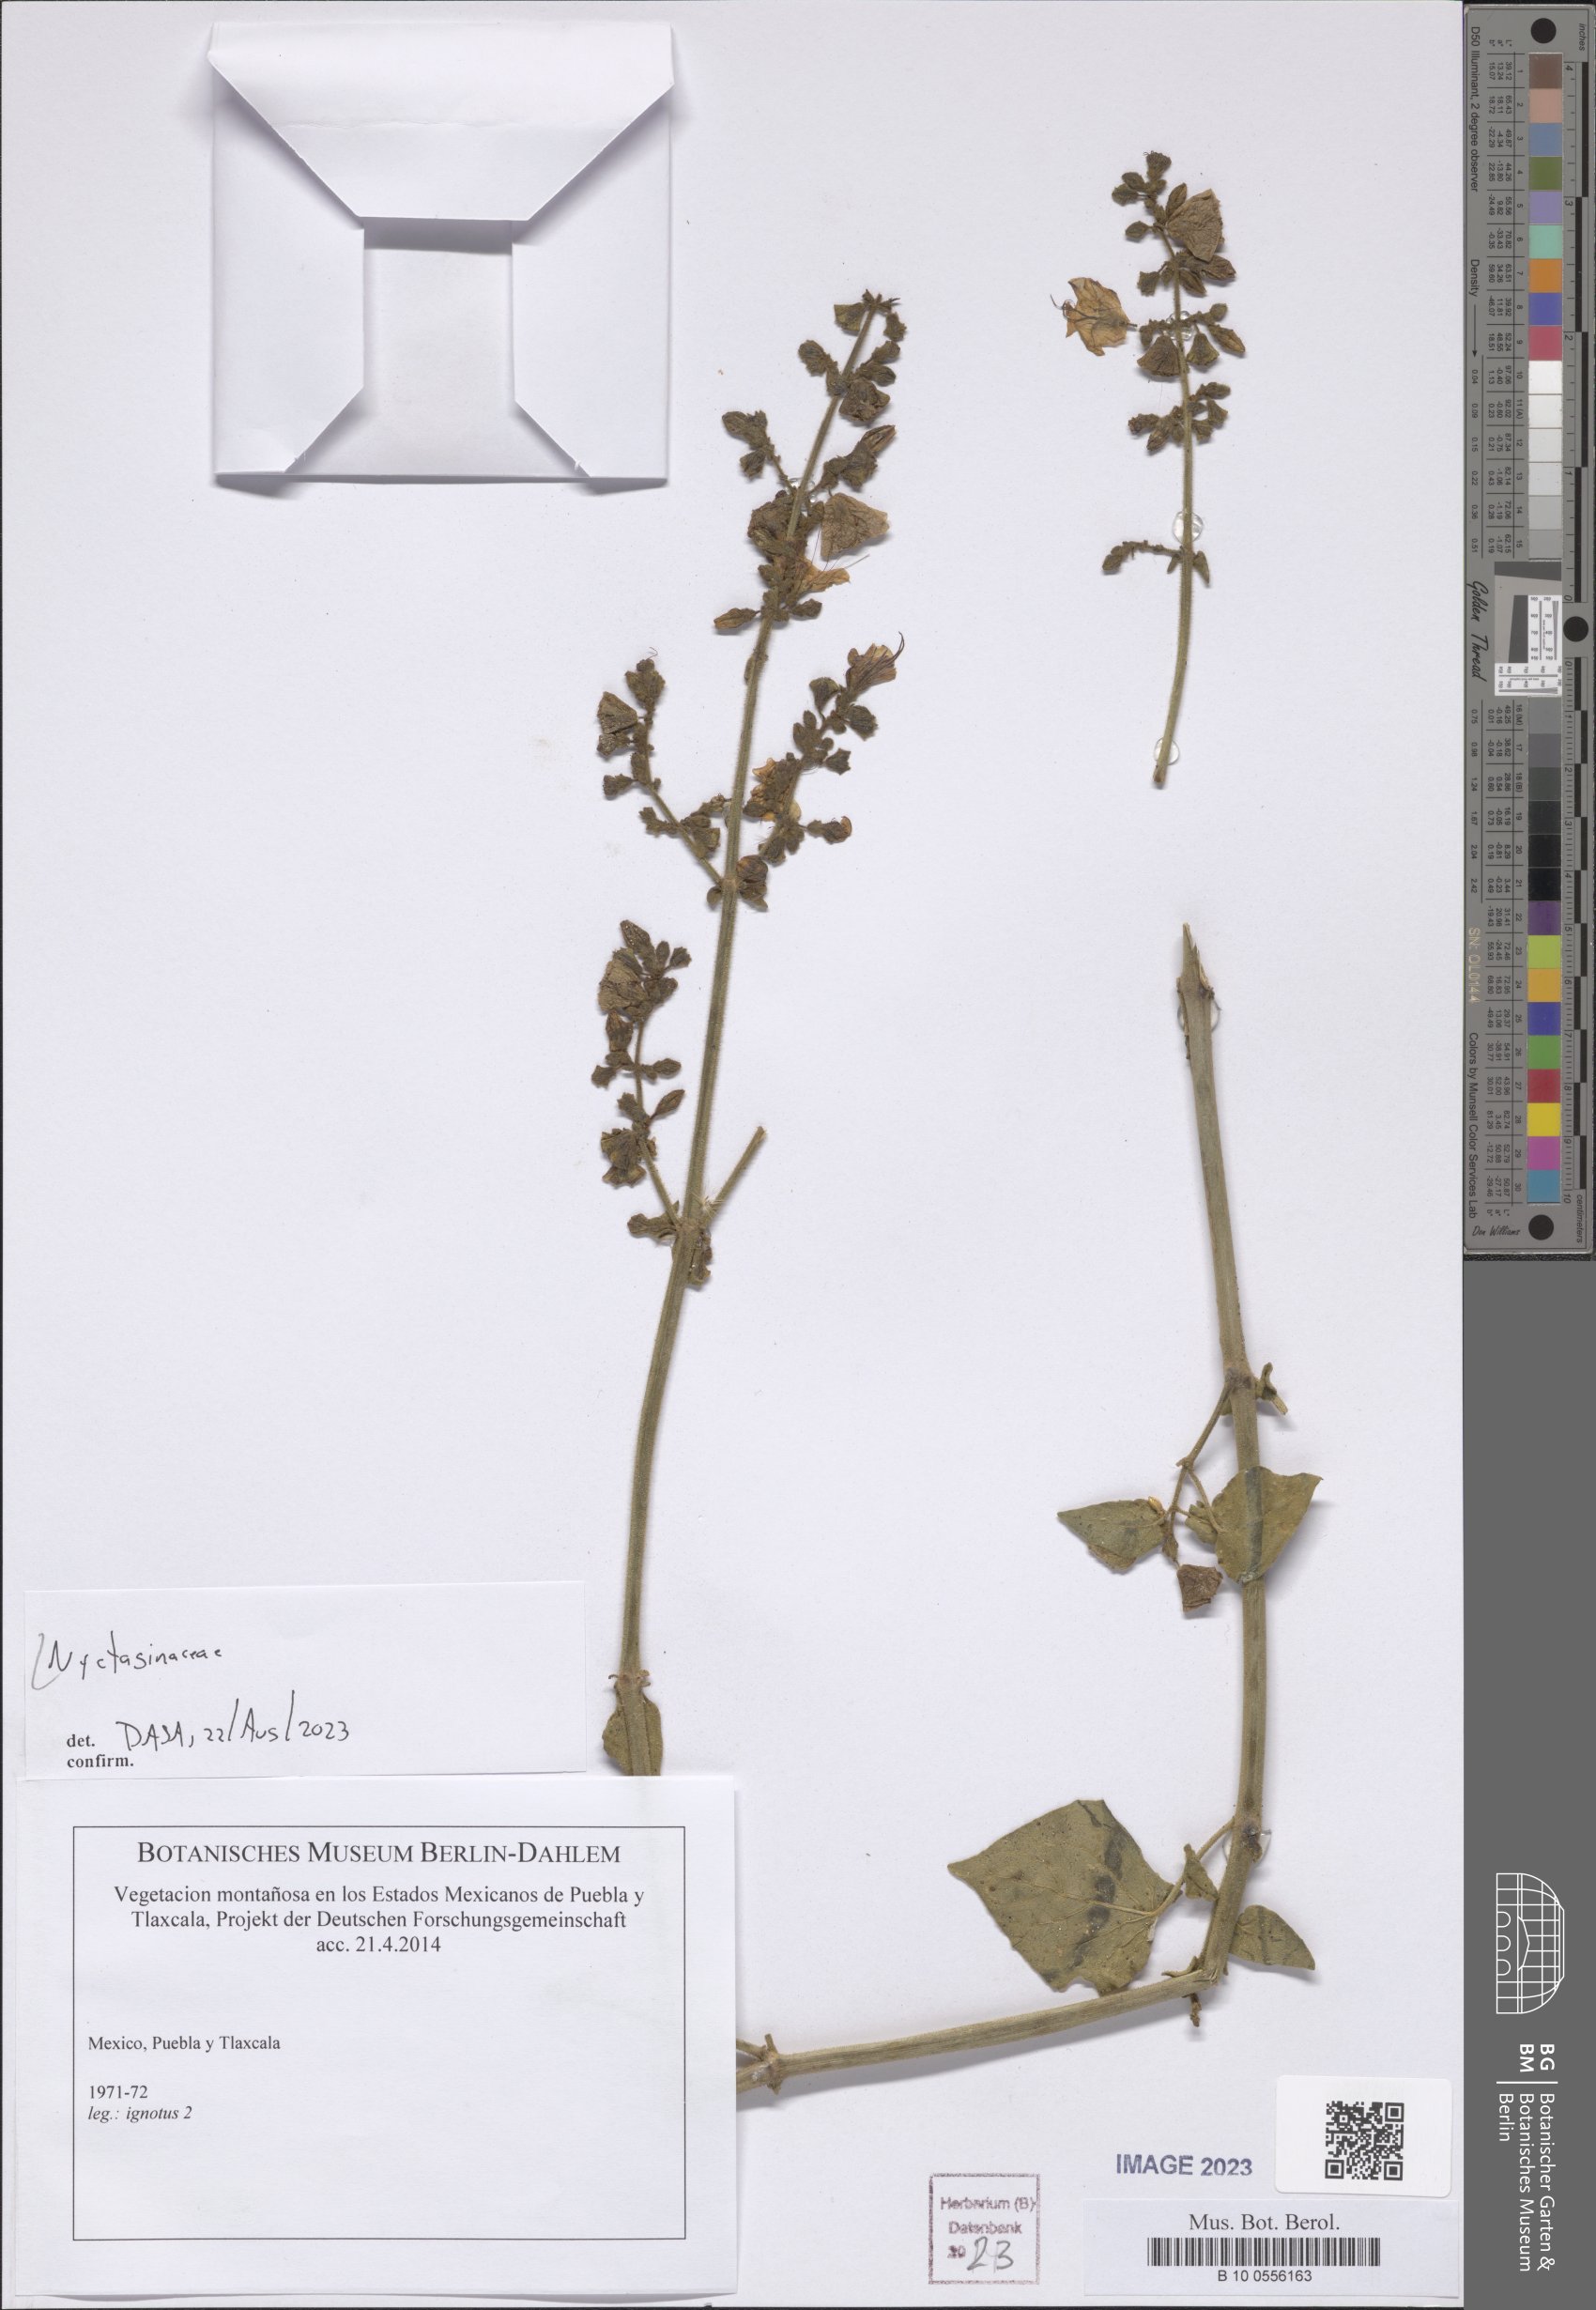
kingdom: Plantae
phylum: Tracheophyta
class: Magnoliopsida
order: Caryophyllales
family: Nyctaginaceae
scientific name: Nyctaginaceae
